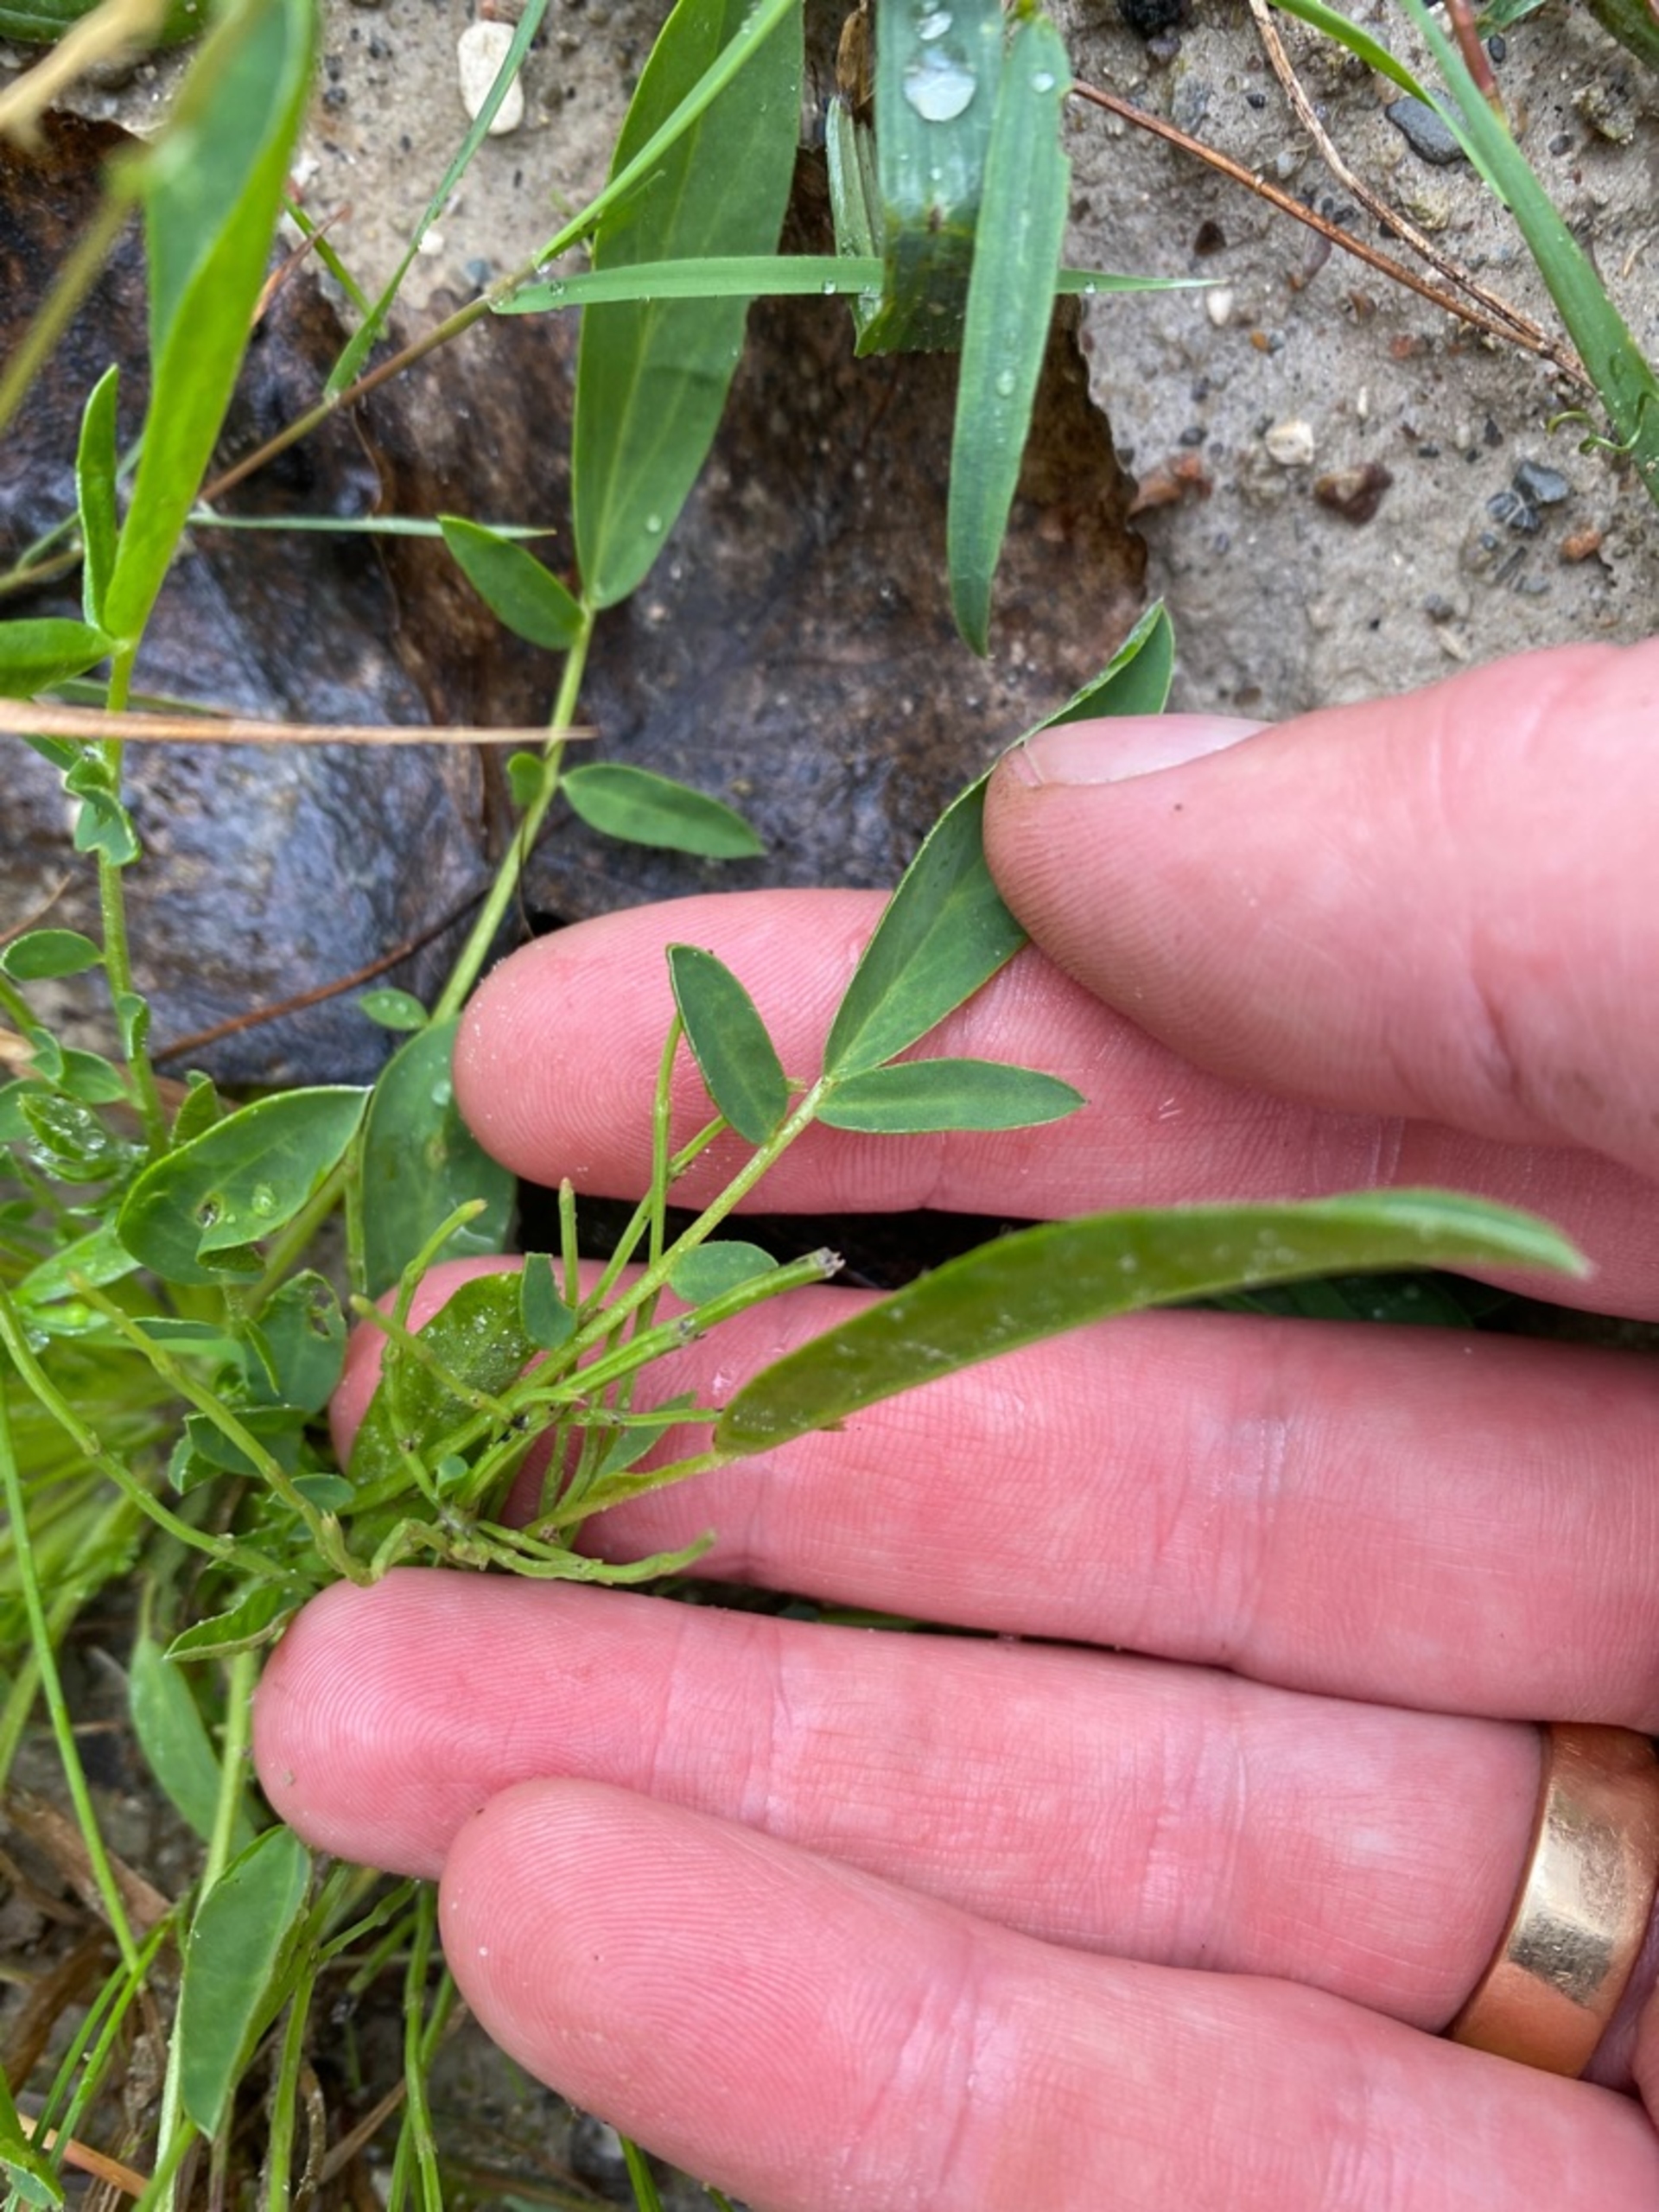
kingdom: Plantae
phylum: Tracheophyta
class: Magnoliopsida
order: Fabales
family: Fabaceae
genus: Anthyllis
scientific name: Anthyllis vulneraria
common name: Rundbælg
